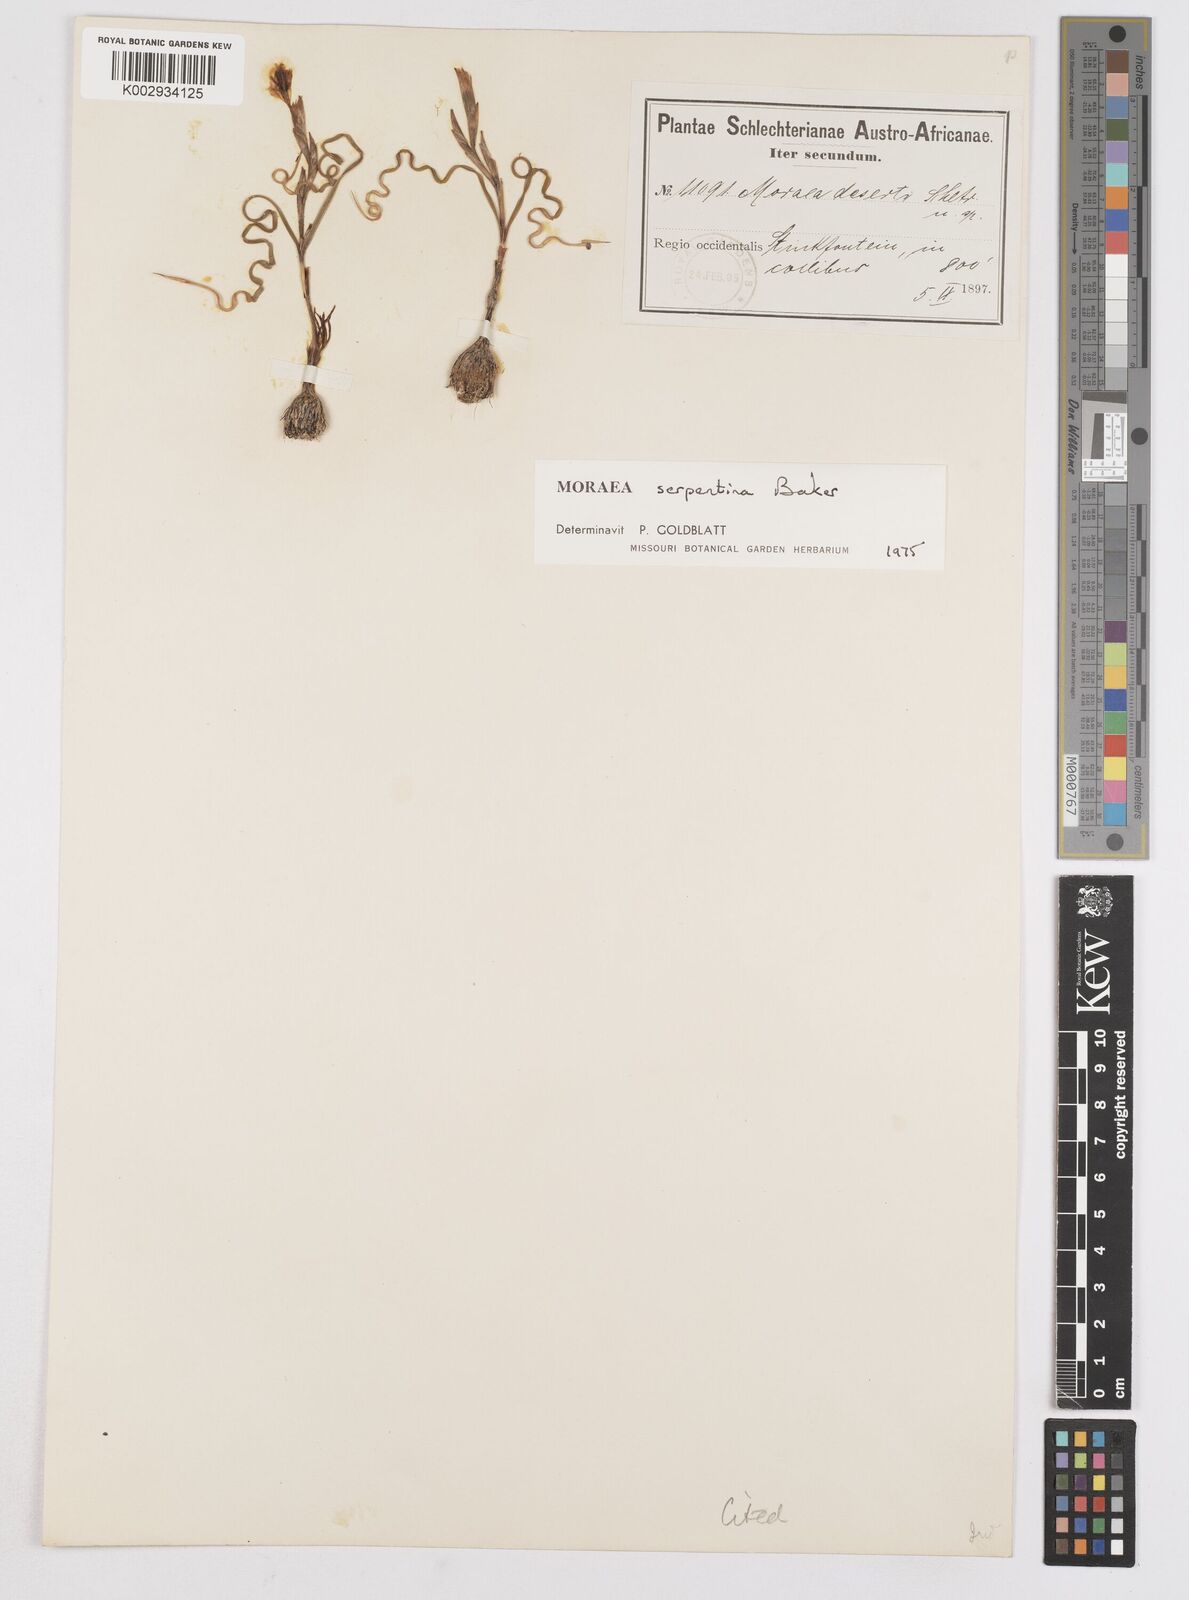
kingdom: Plantae
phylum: Tracheophyta
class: Liliopsida
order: Asparagales
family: Iridaceae
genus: Moraea
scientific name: Moraea serpentina
